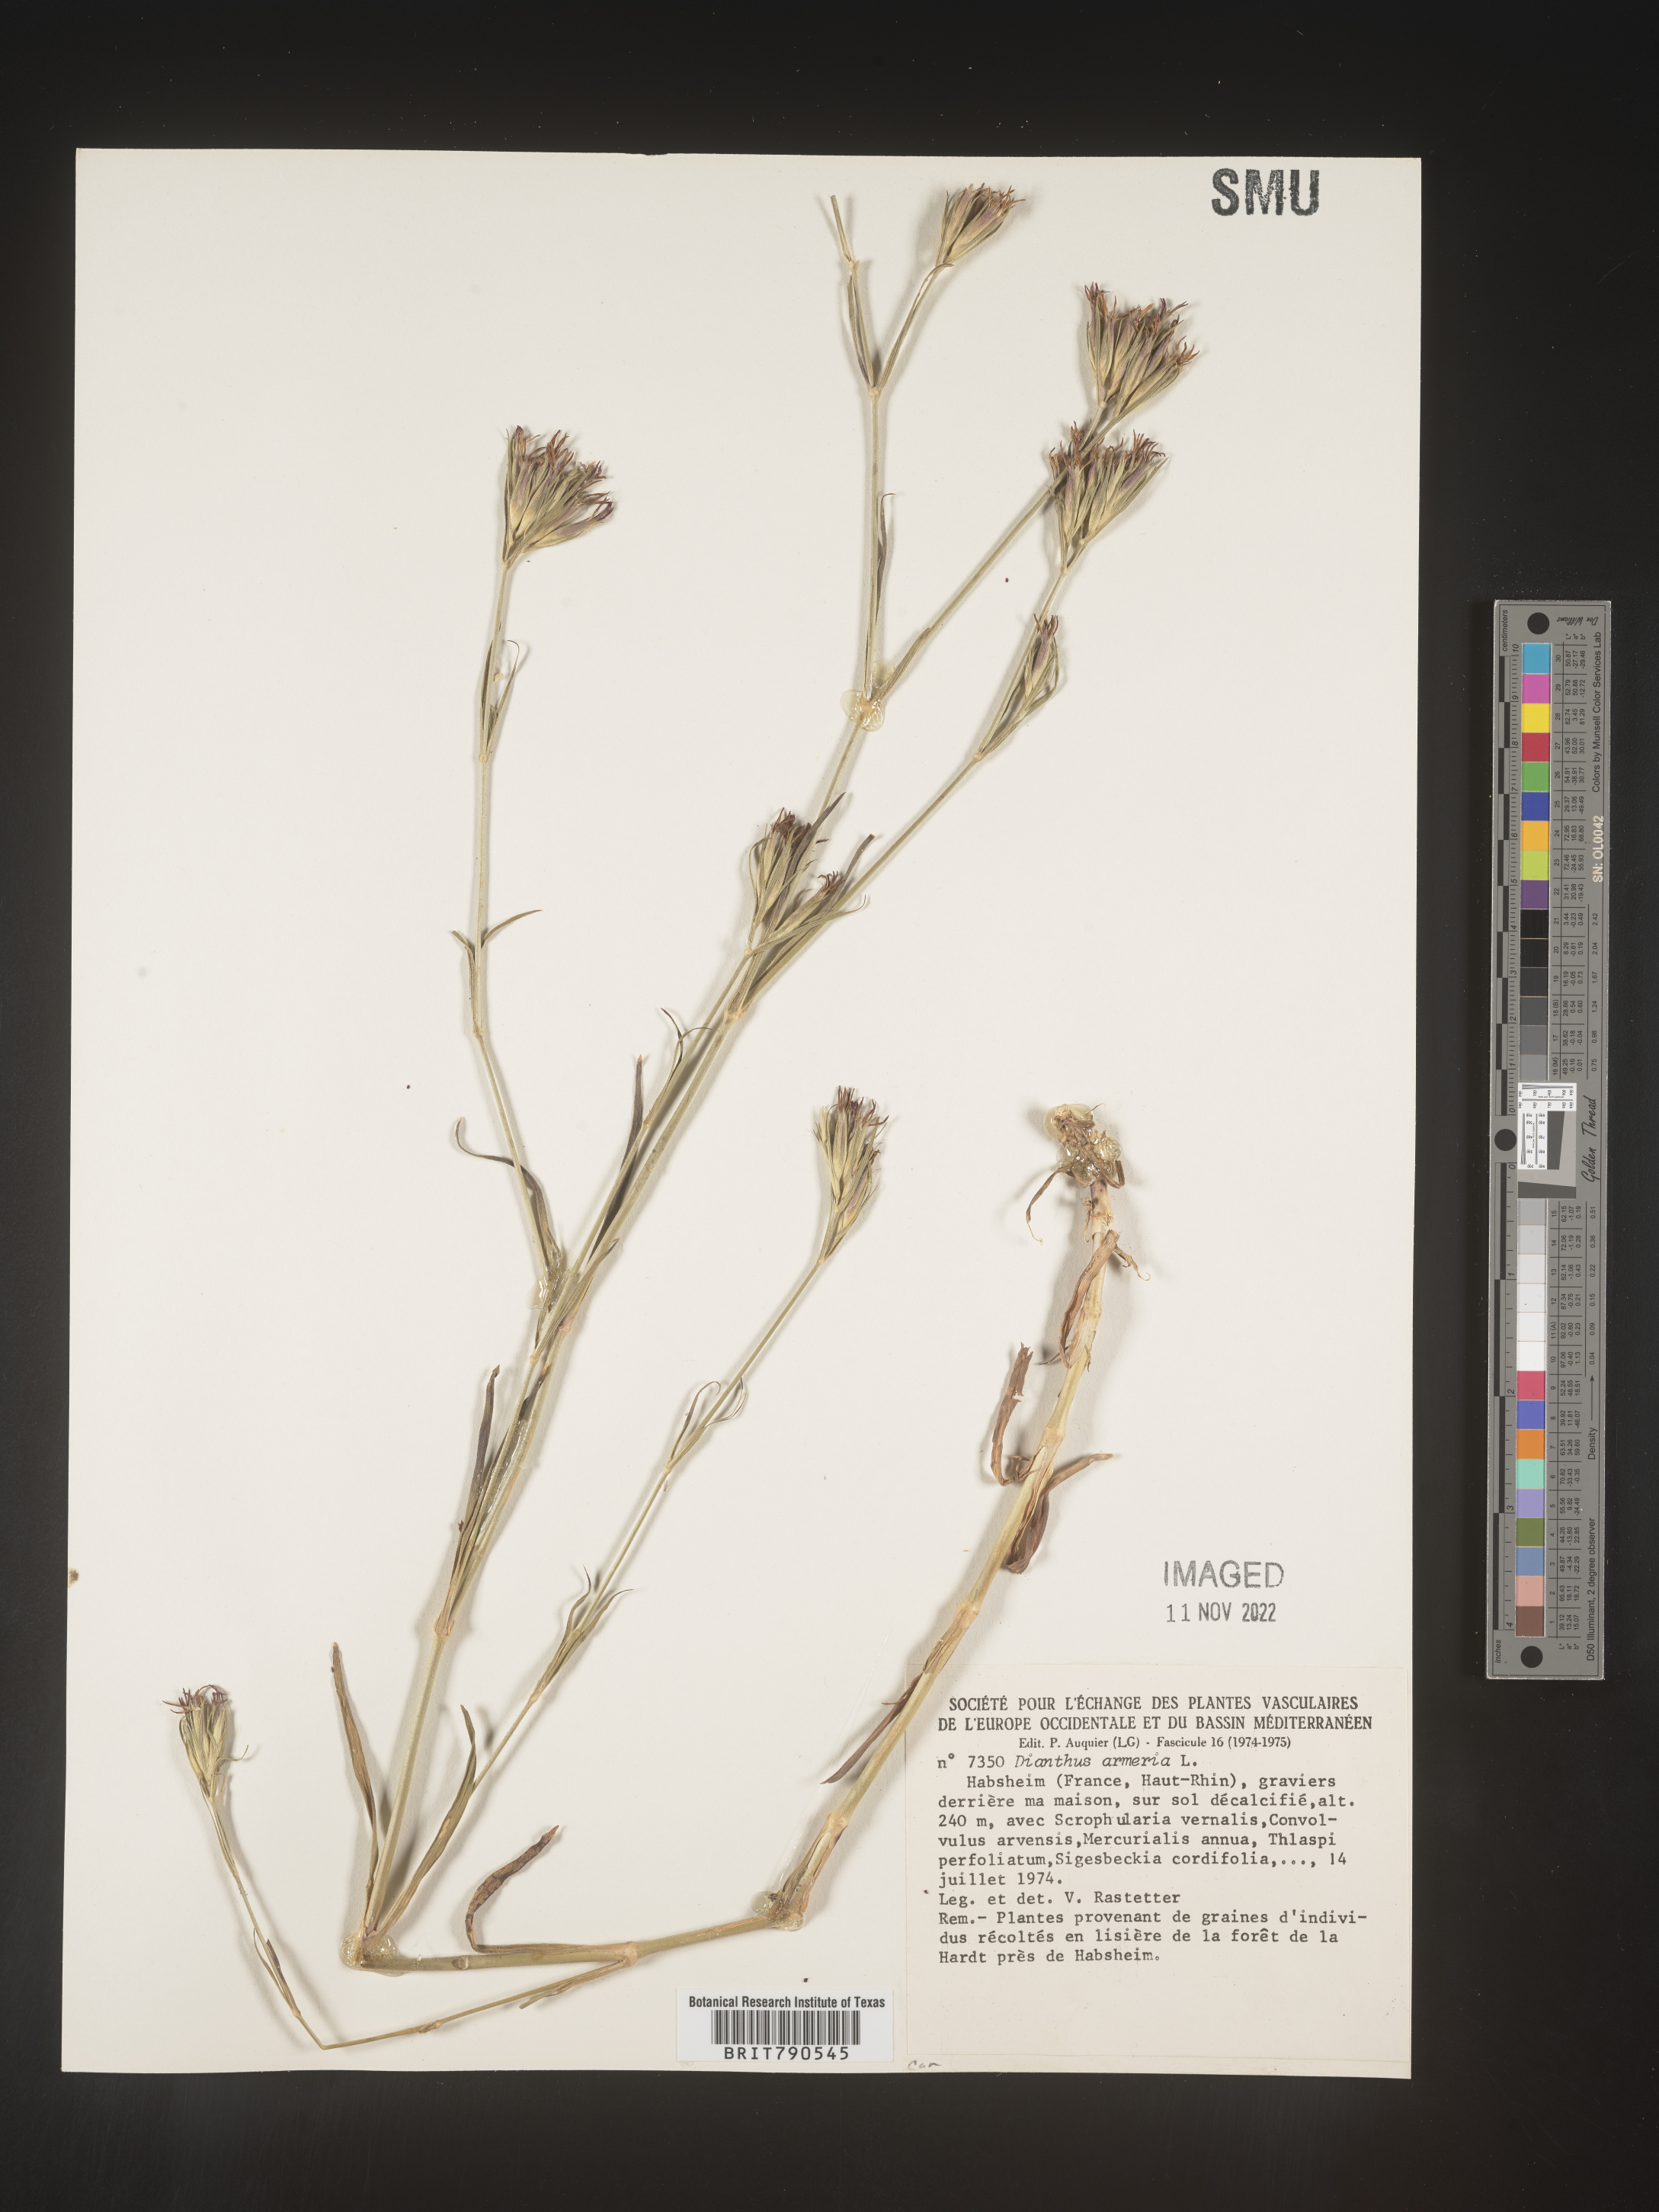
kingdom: Plantae
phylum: Tracheophyta
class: Magnoliopsida
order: Caryophyllales
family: Caryophyllaceae
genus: Dianthus
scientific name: Dianthus
